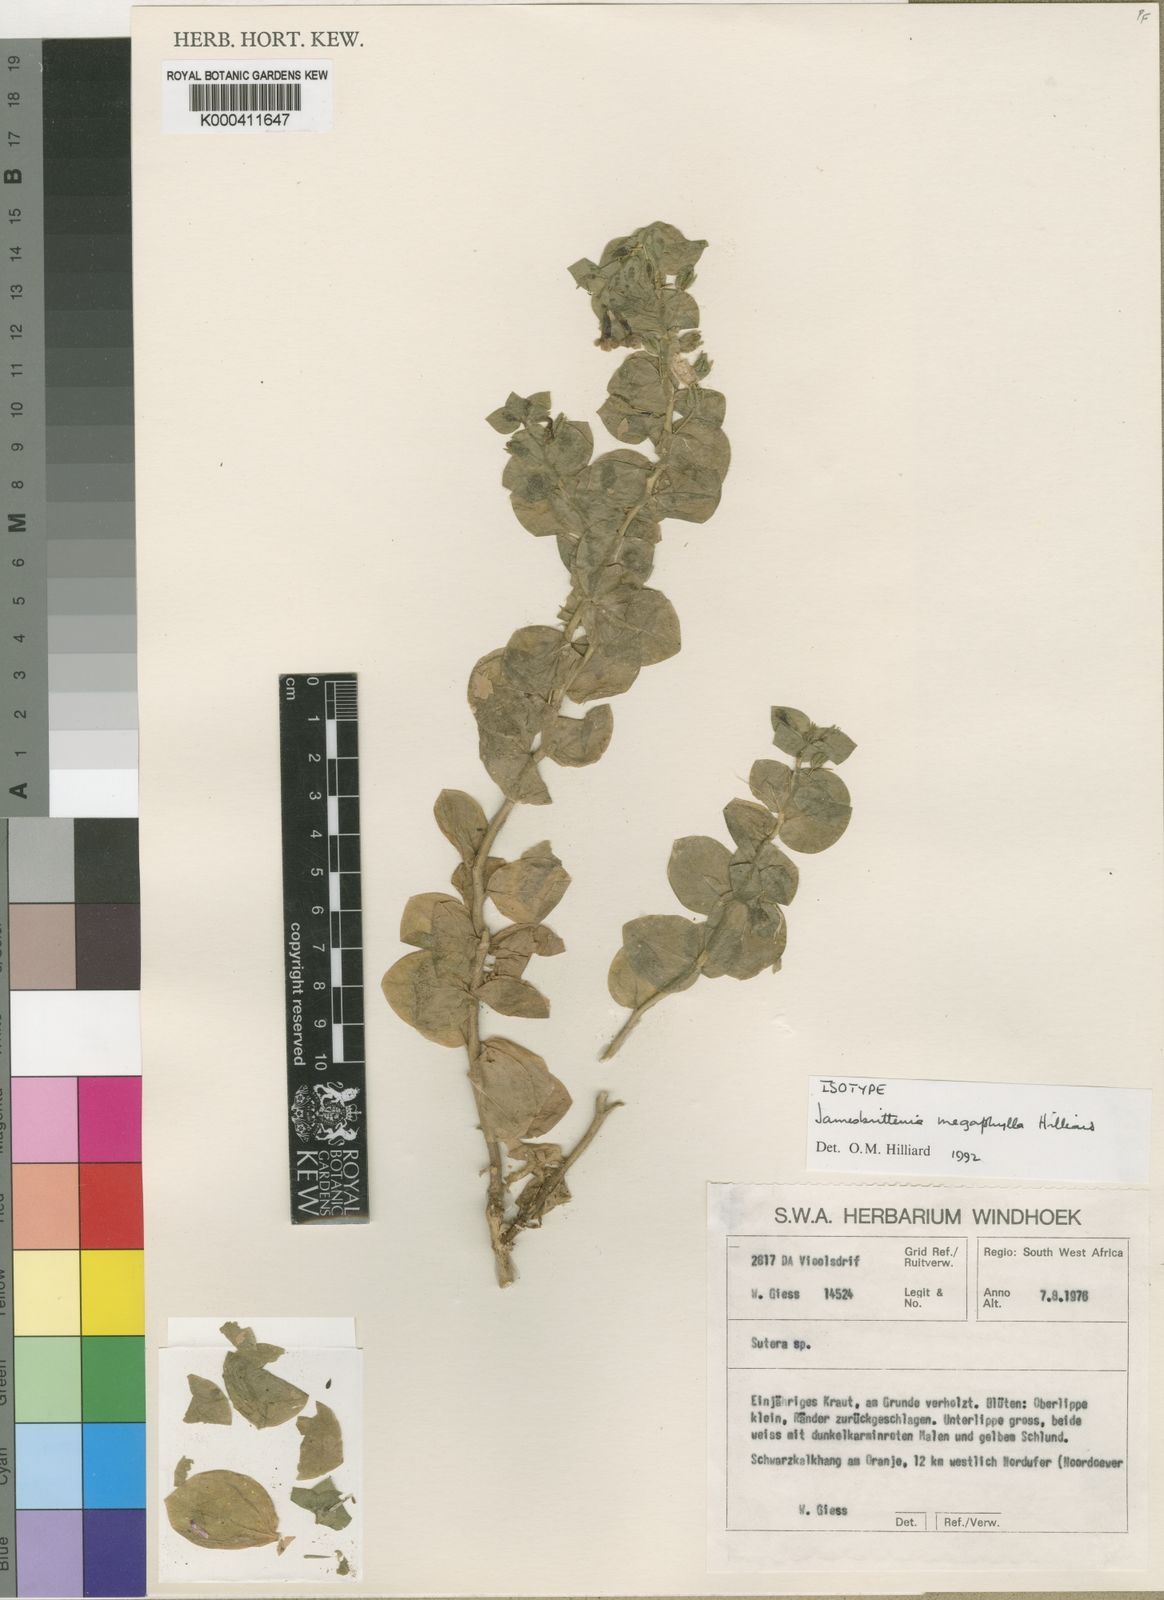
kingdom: Plantae
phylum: Tracheophyta
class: Magnoliopsida
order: Lamiales
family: Scrophulariaceae
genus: Jamesbrittenia
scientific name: Jamesbrittenia megaphylla
